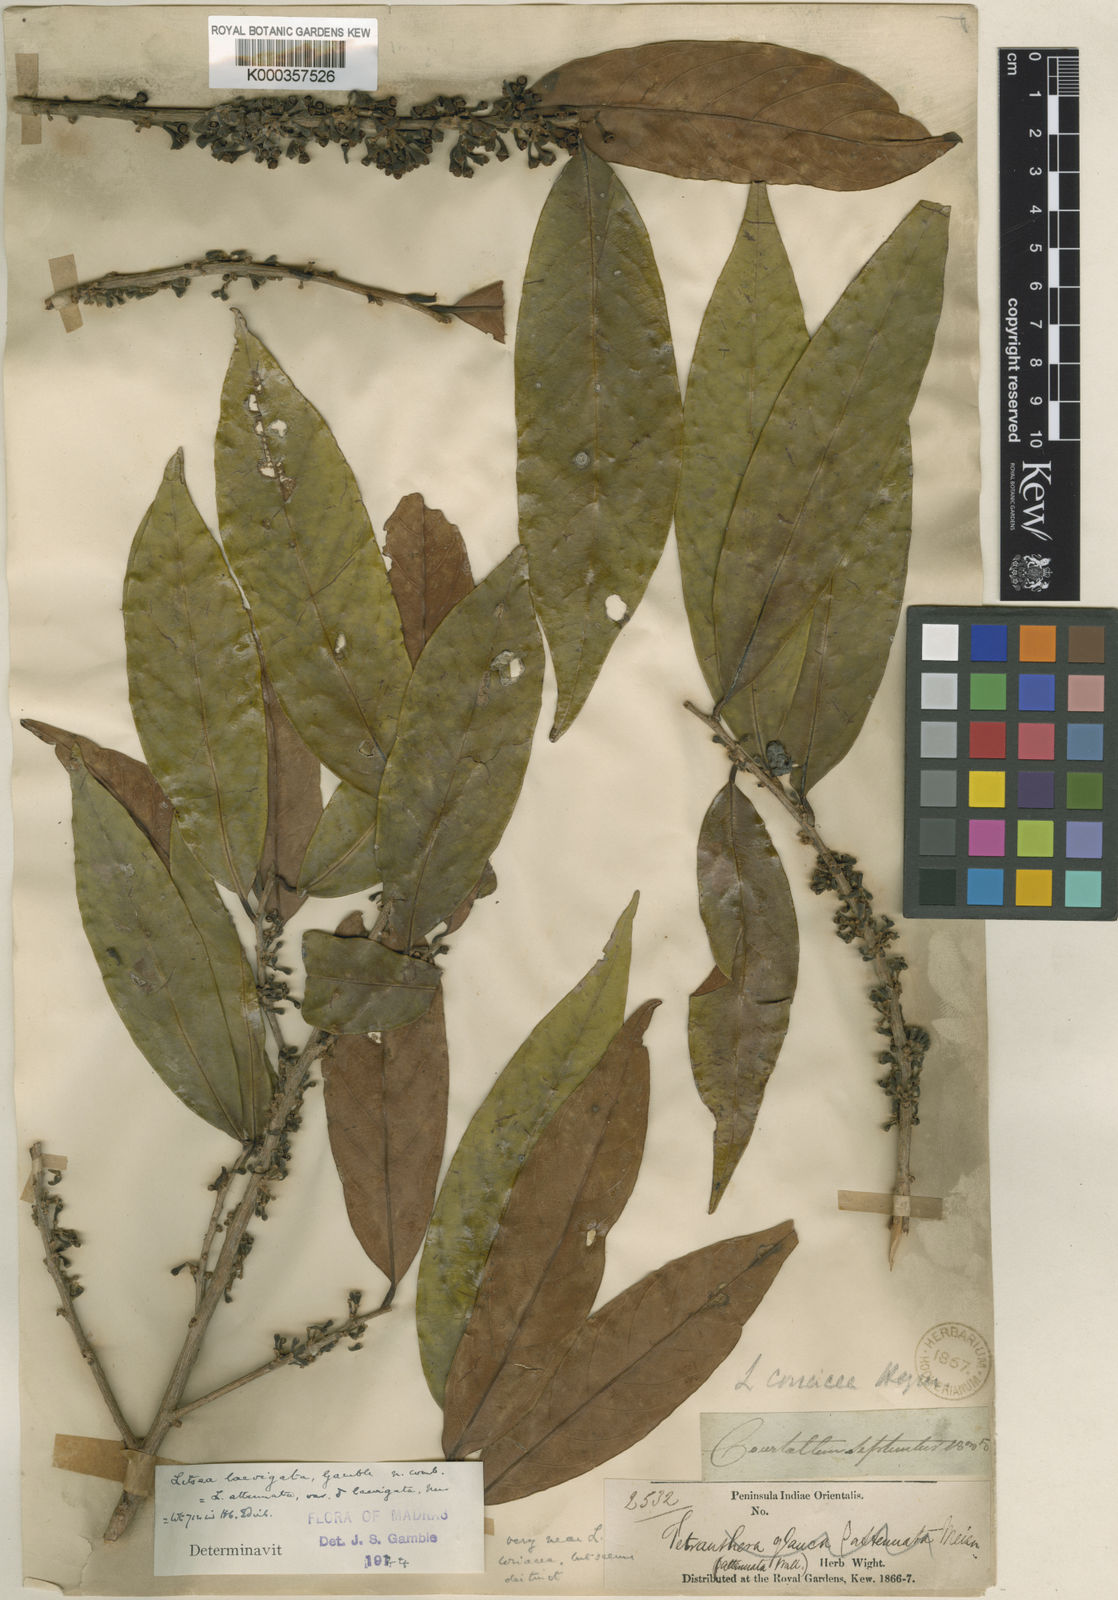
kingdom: Plantae
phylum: Tracheophyta
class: Magnoliopsida
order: Laurales
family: Lauraceae
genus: Litsea
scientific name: Litsea laevigata
